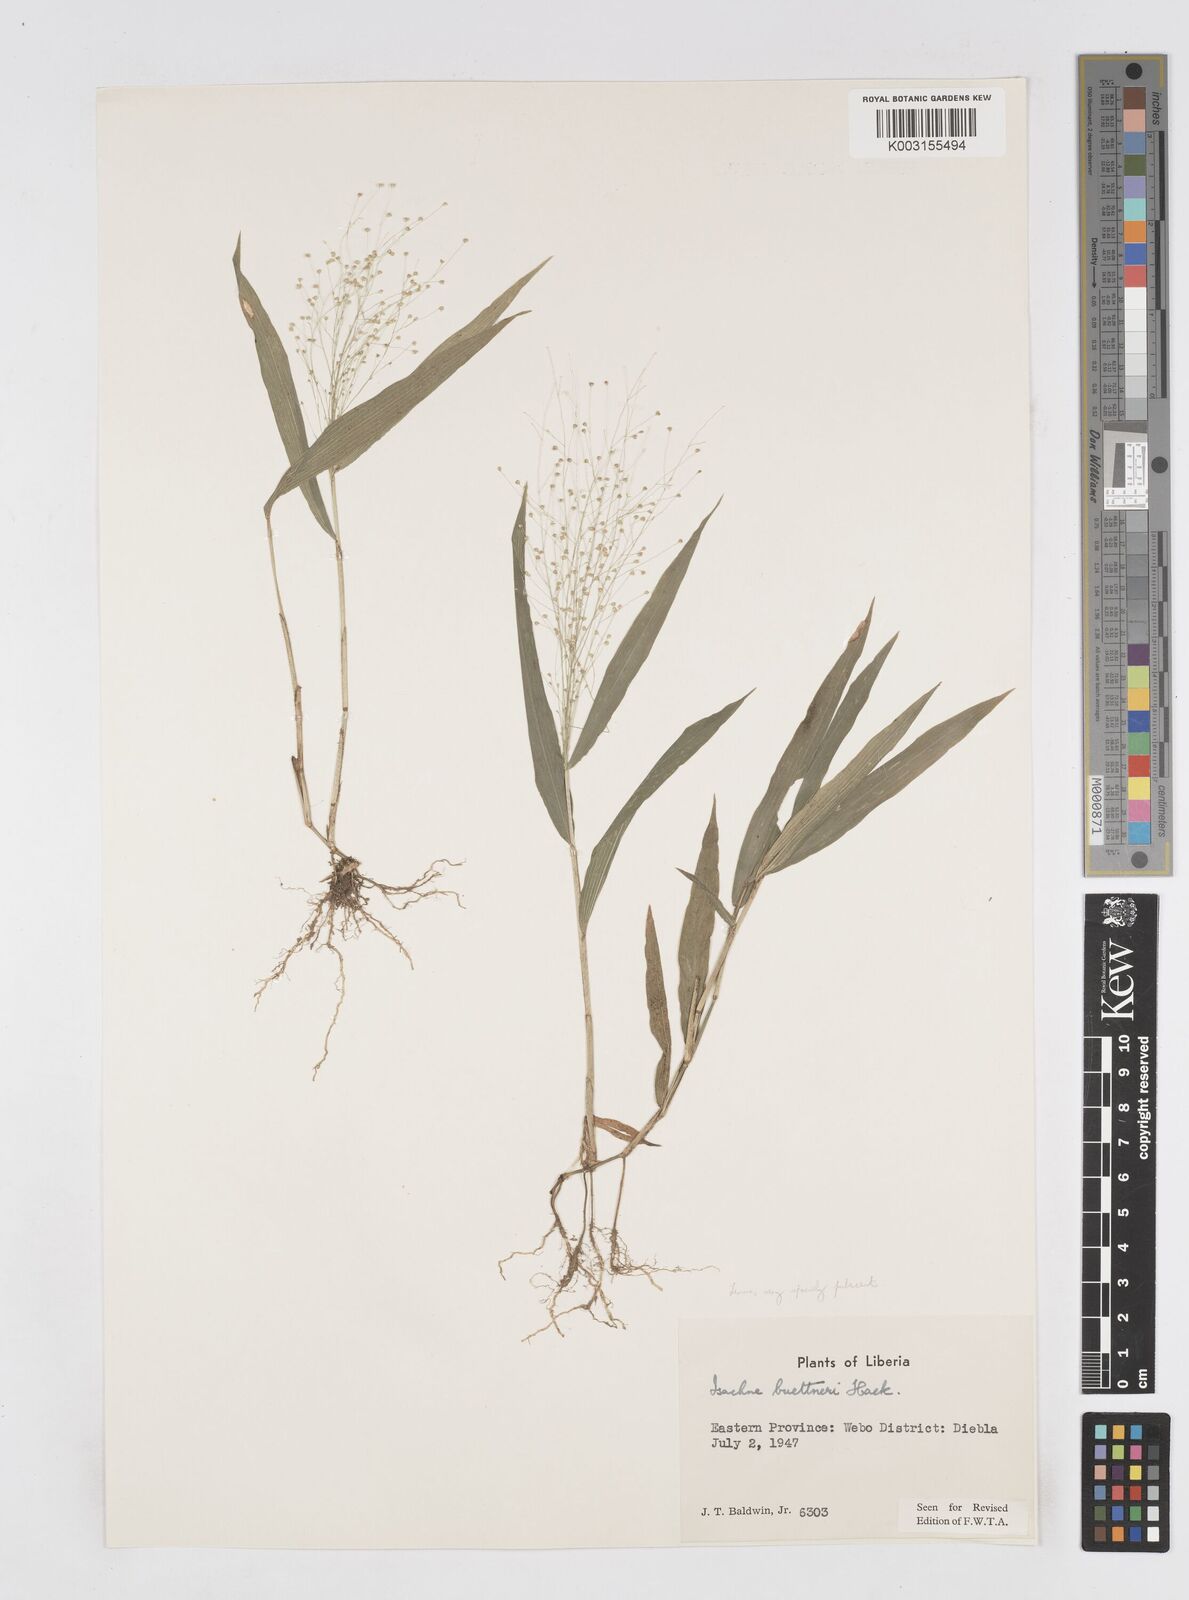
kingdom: Plantae
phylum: Tracheophyta
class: Liliopsida
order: Poales
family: Poaceae
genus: Isachne
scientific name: Isachne albens
